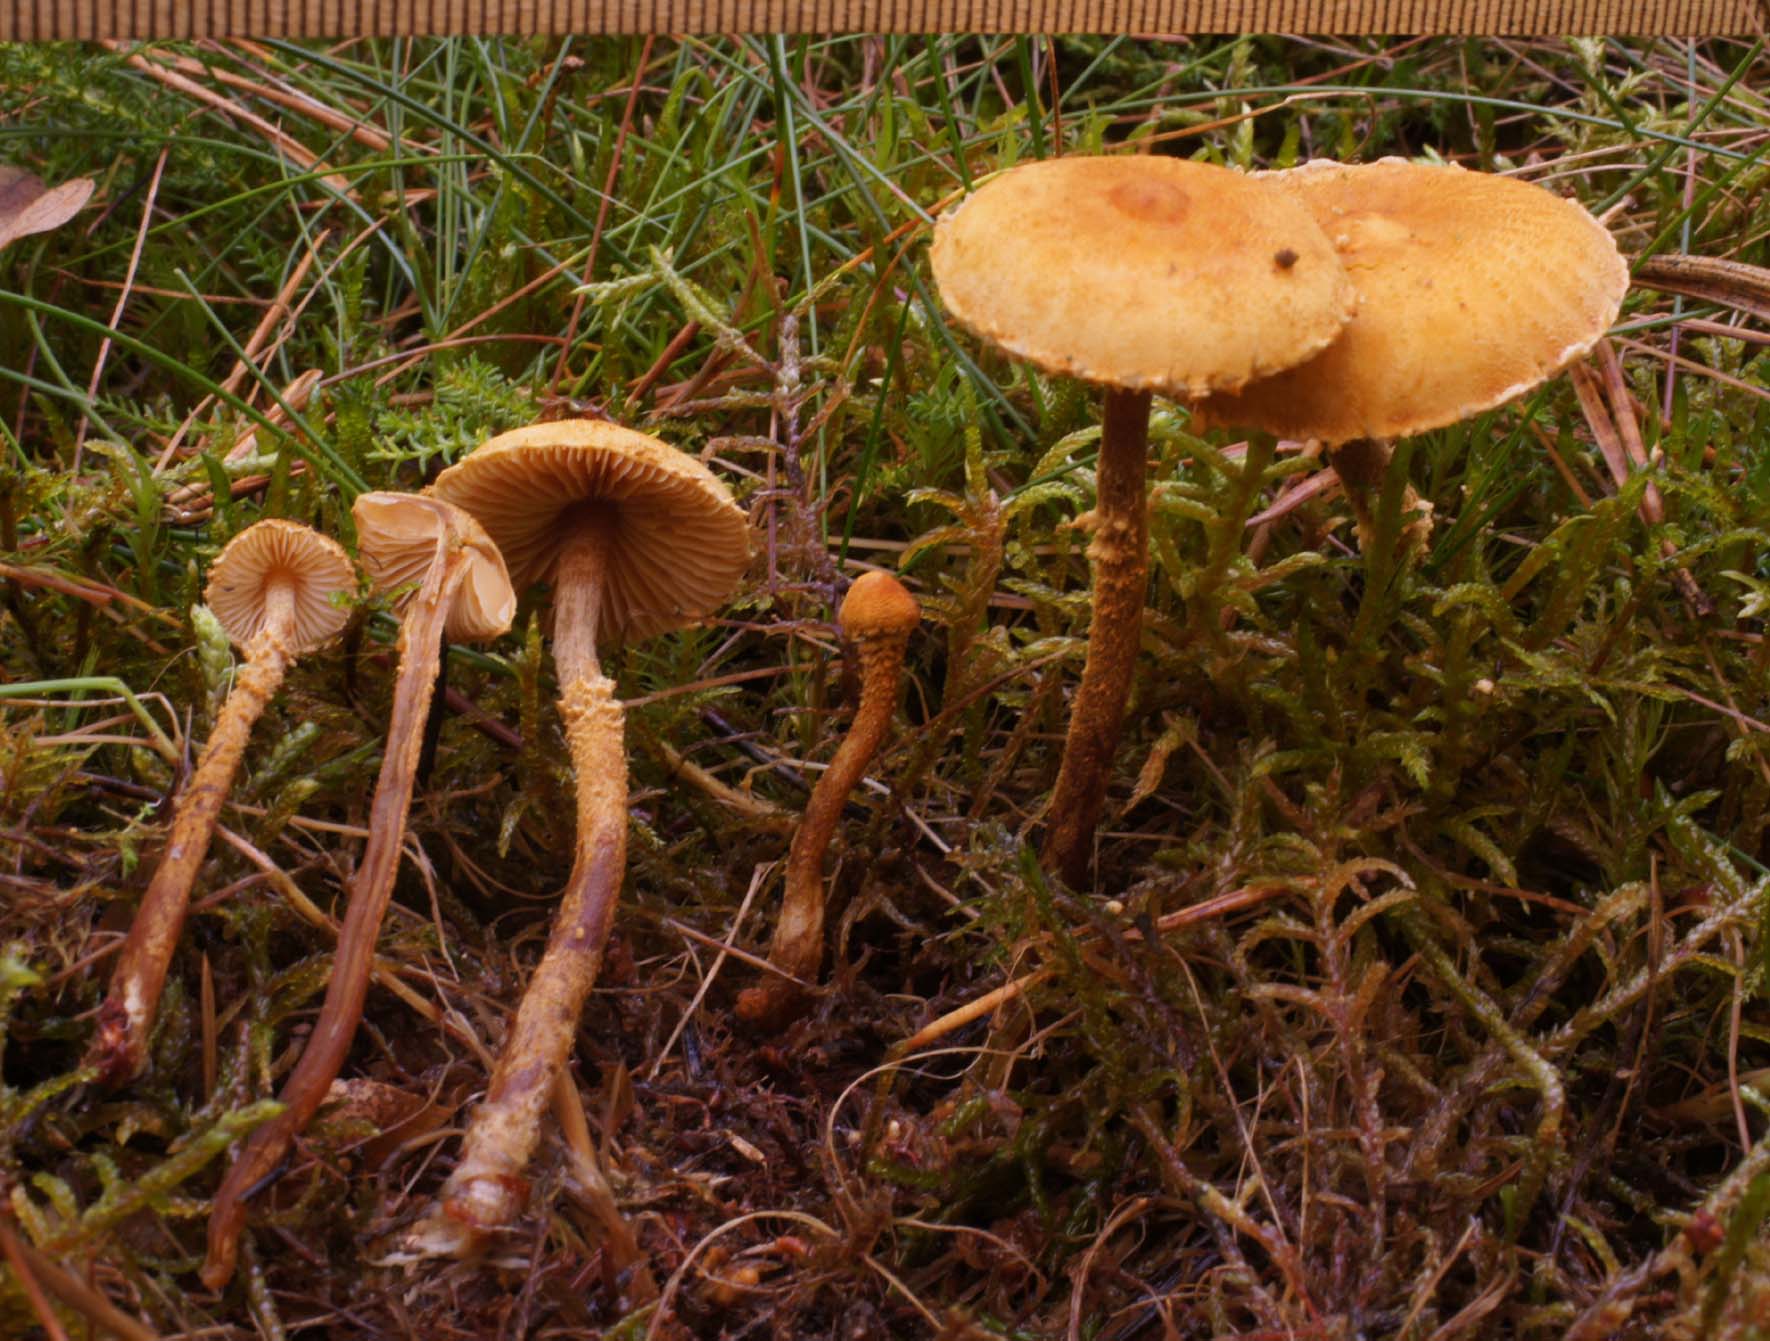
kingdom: Fungi
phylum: Basidiomycota
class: Agaricomycetes
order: Agaricales
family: Tricholomataceae
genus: Cystoderma
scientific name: Cystoderma jasonis
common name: gulkødet grynhat
